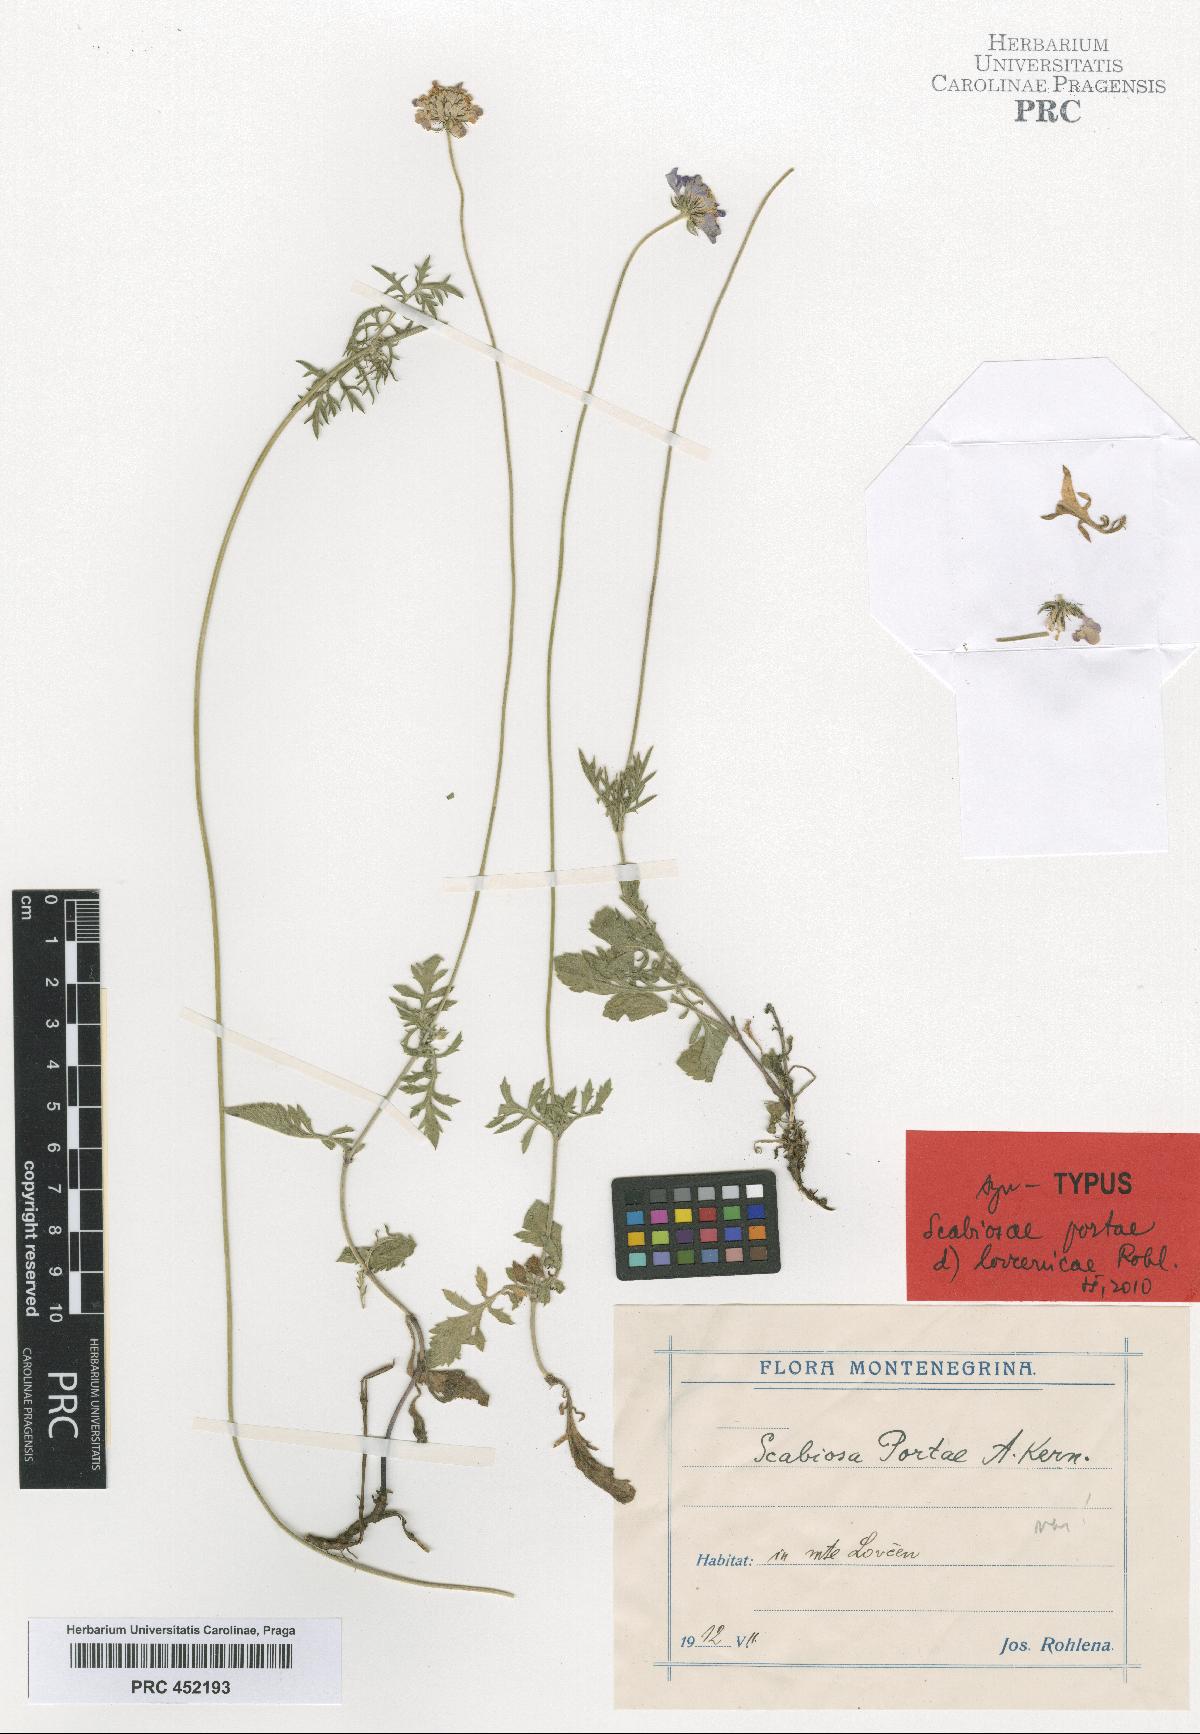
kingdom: Plantae
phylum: Tracheophyta
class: Magnoliopsida
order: Dipsacales
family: Caprifoliaceae
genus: Scabiosa
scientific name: Scabiosa taygetea
